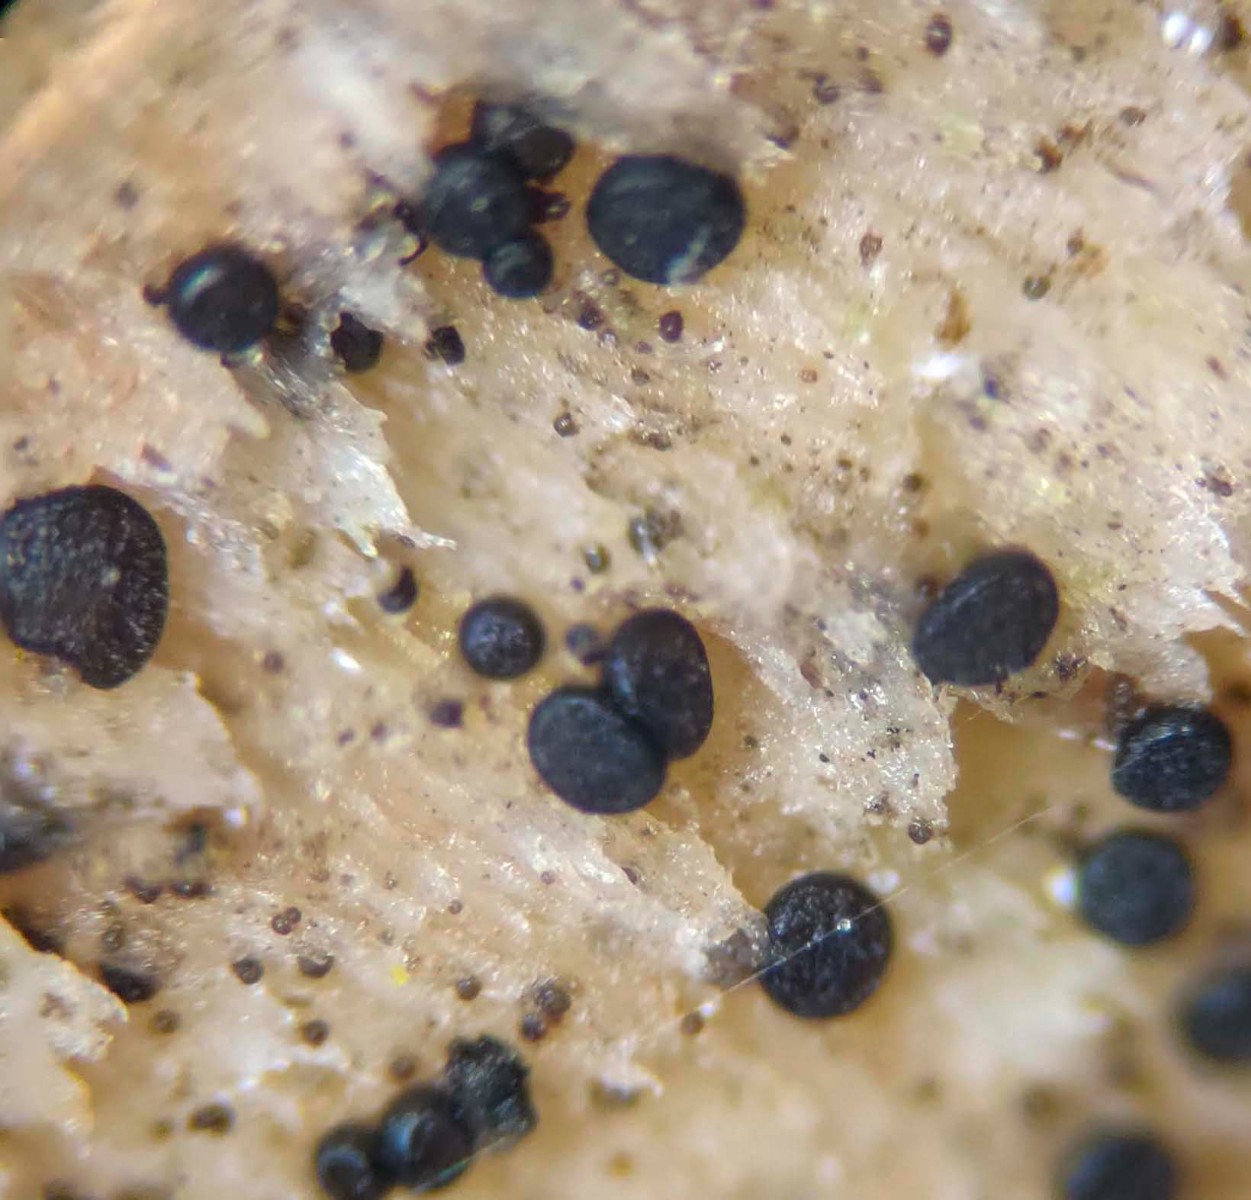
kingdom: Fungi
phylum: Ascomycota
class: Leotiomycetes
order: Helotiales
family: Helotiaceae
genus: Durella
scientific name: Durella commutata
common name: sort linseskive
